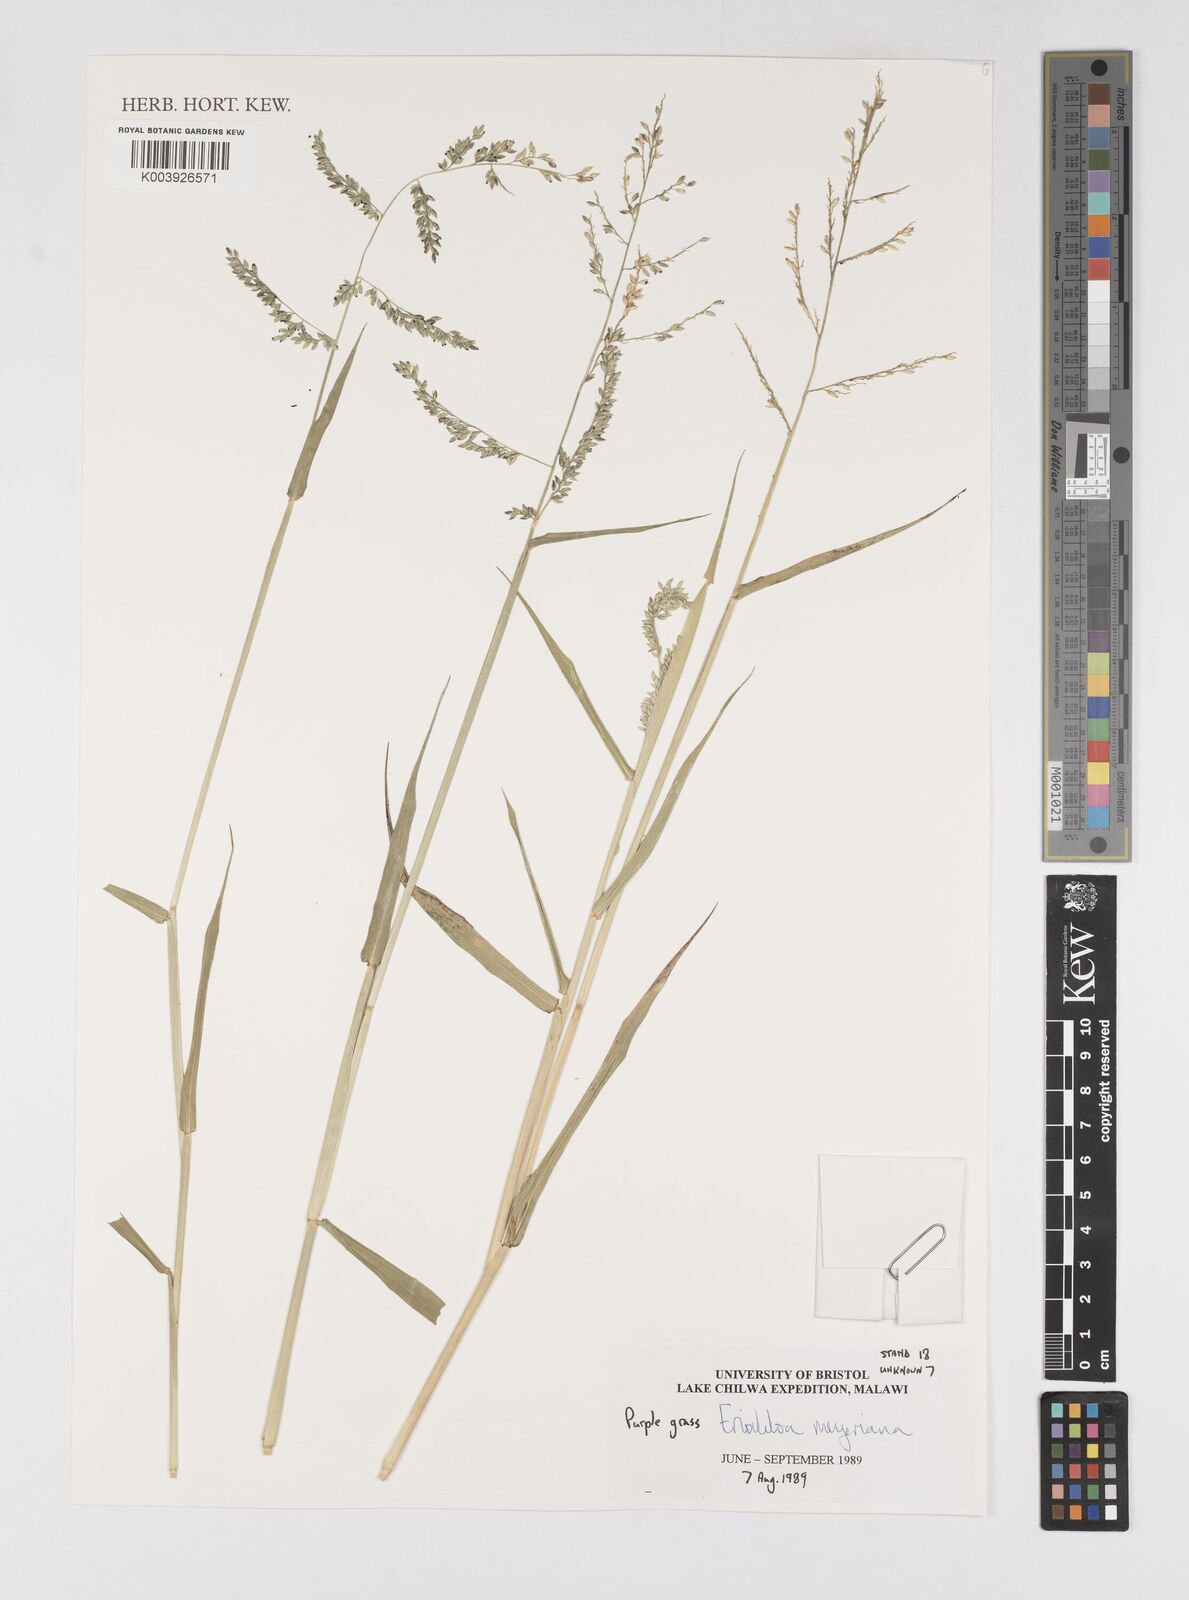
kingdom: Plantae
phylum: Tracheophyta
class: Liliopsida
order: Poales
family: Poaceae
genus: Eriochloa
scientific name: Eriochloa meyeriana
